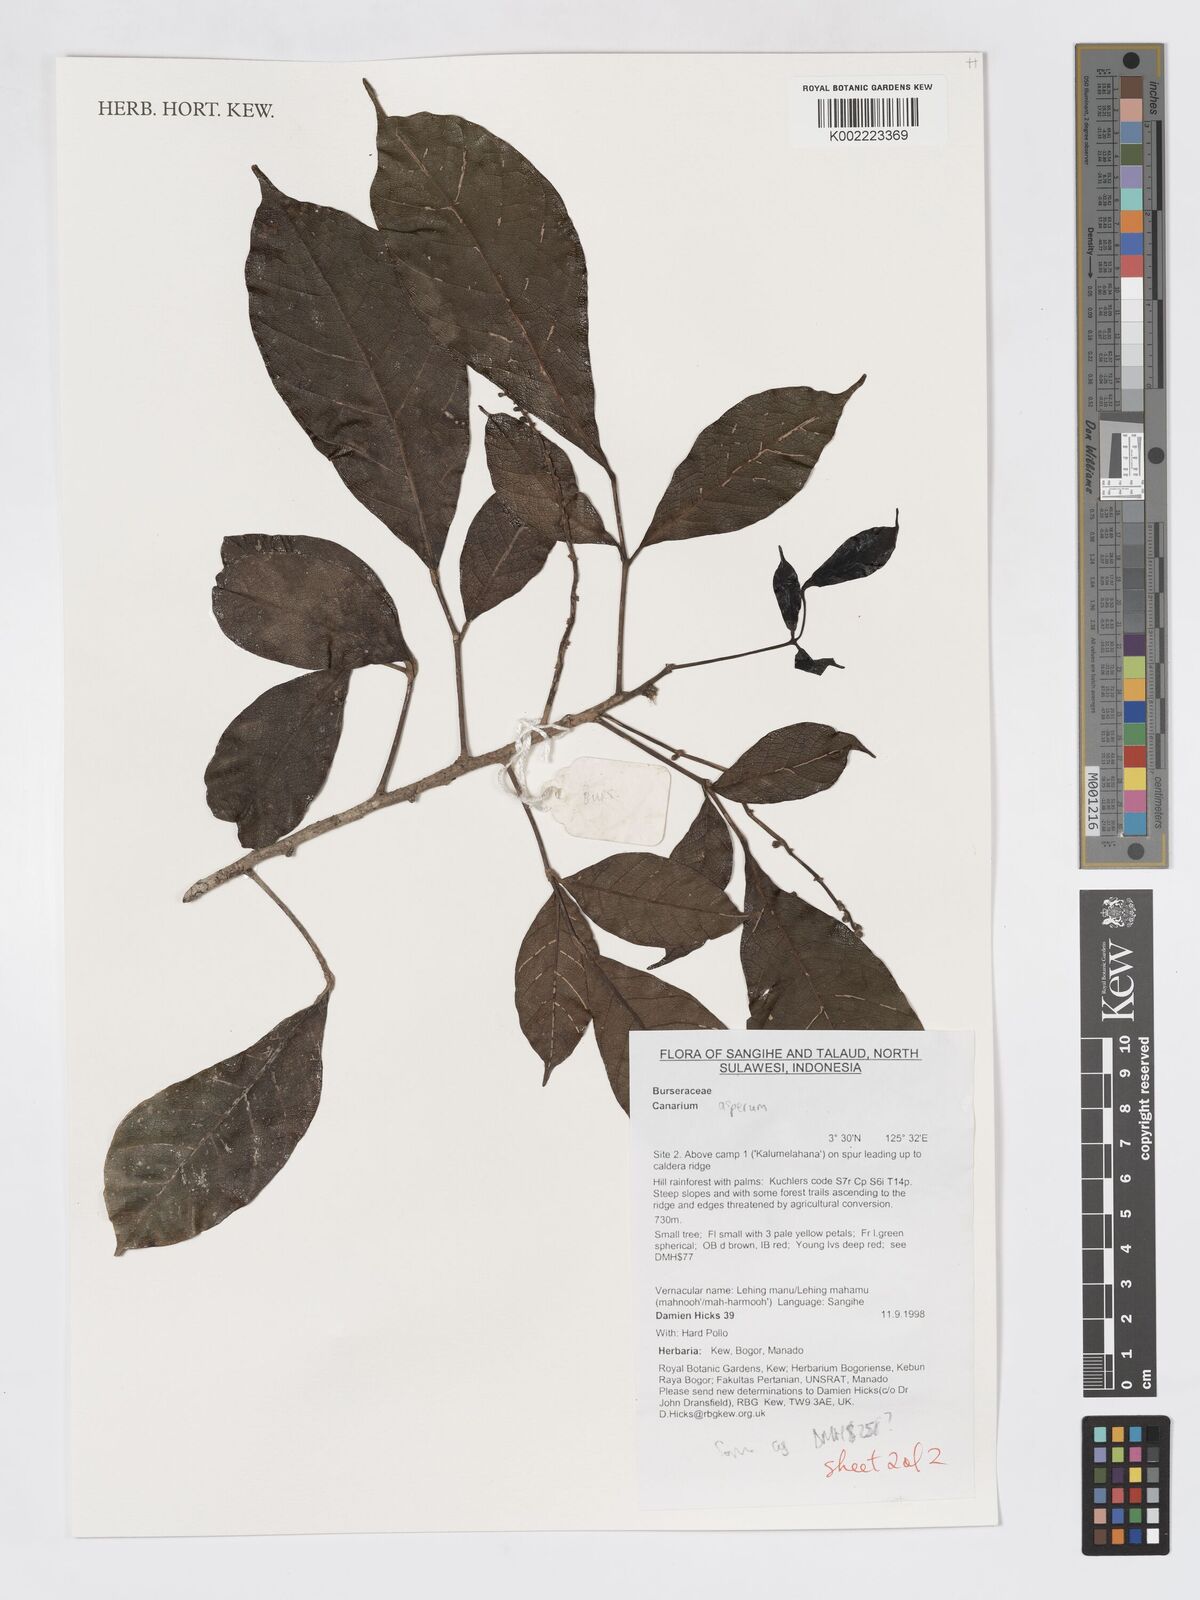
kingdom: Plantae
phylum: Tracheophyta
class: Magnoliopsida
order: Sapindales
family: Burseraceae
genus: Canarium
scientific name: Canarium asperum
